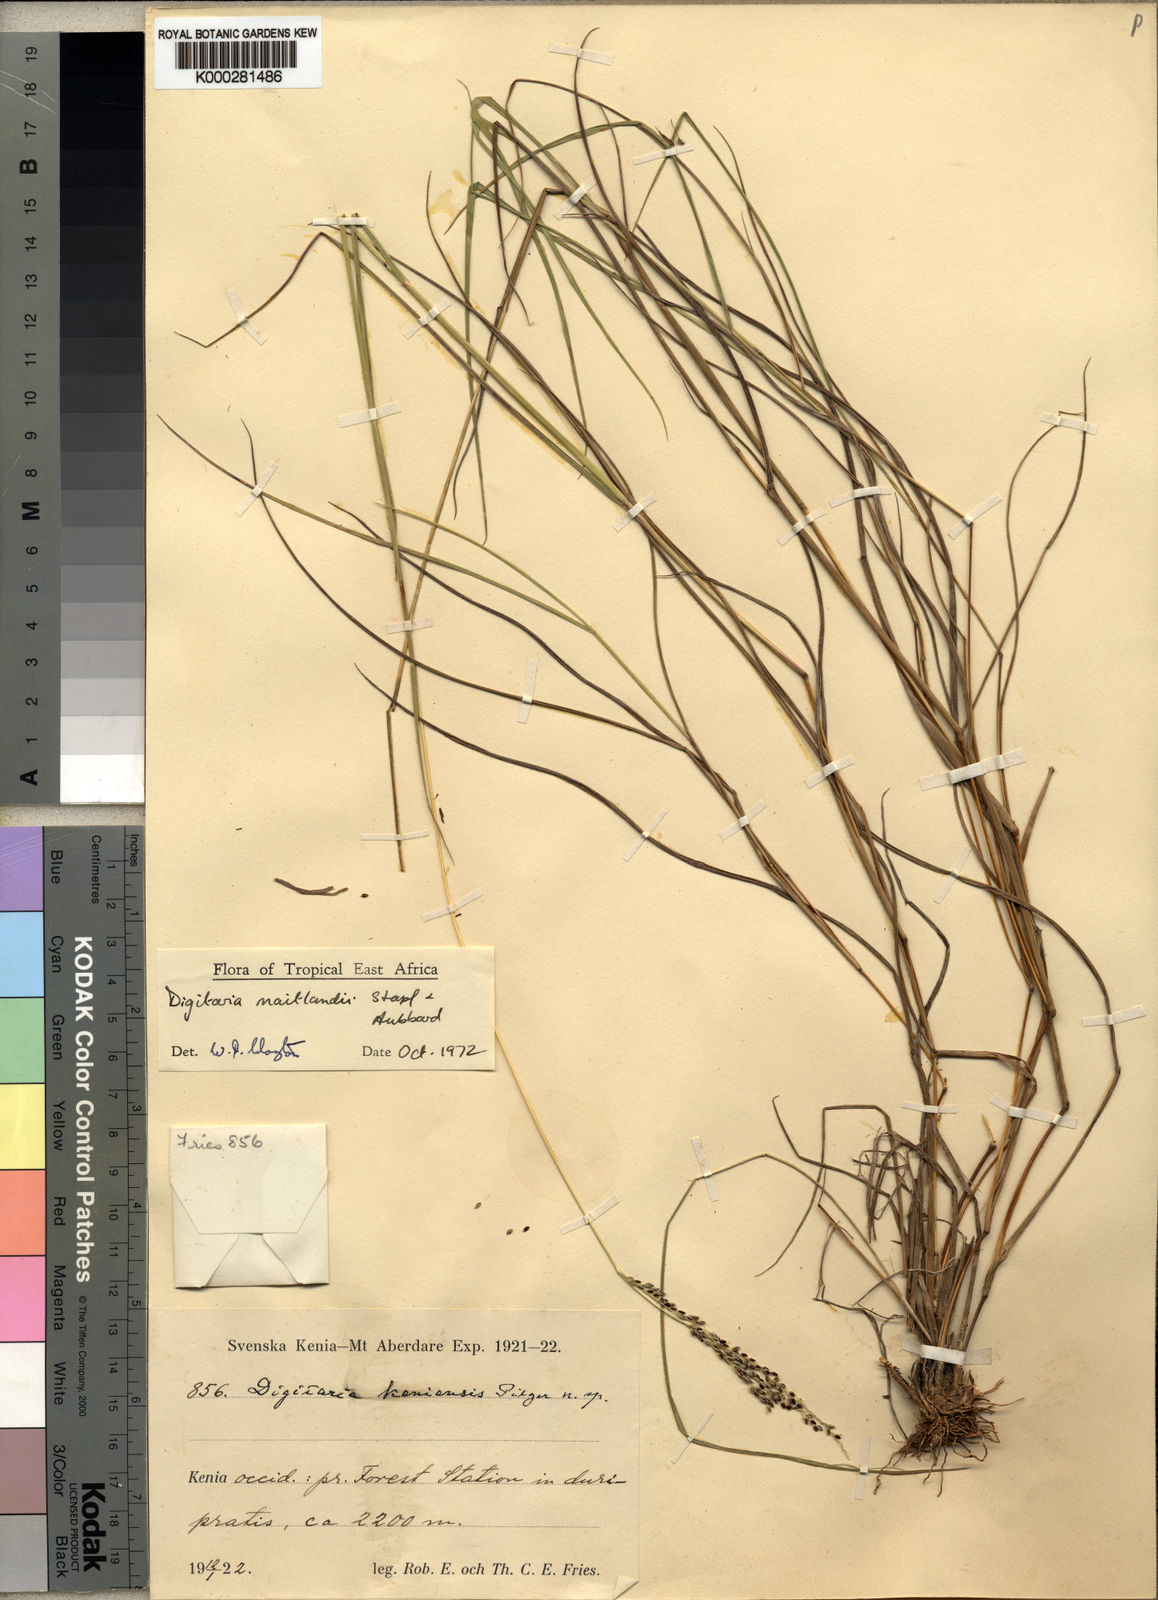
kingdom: Plantae
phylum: Tracheophyta
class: Liliopsida
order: Poales
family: Poaceae
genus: Digitaria
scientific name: Digitaria maitlandii
